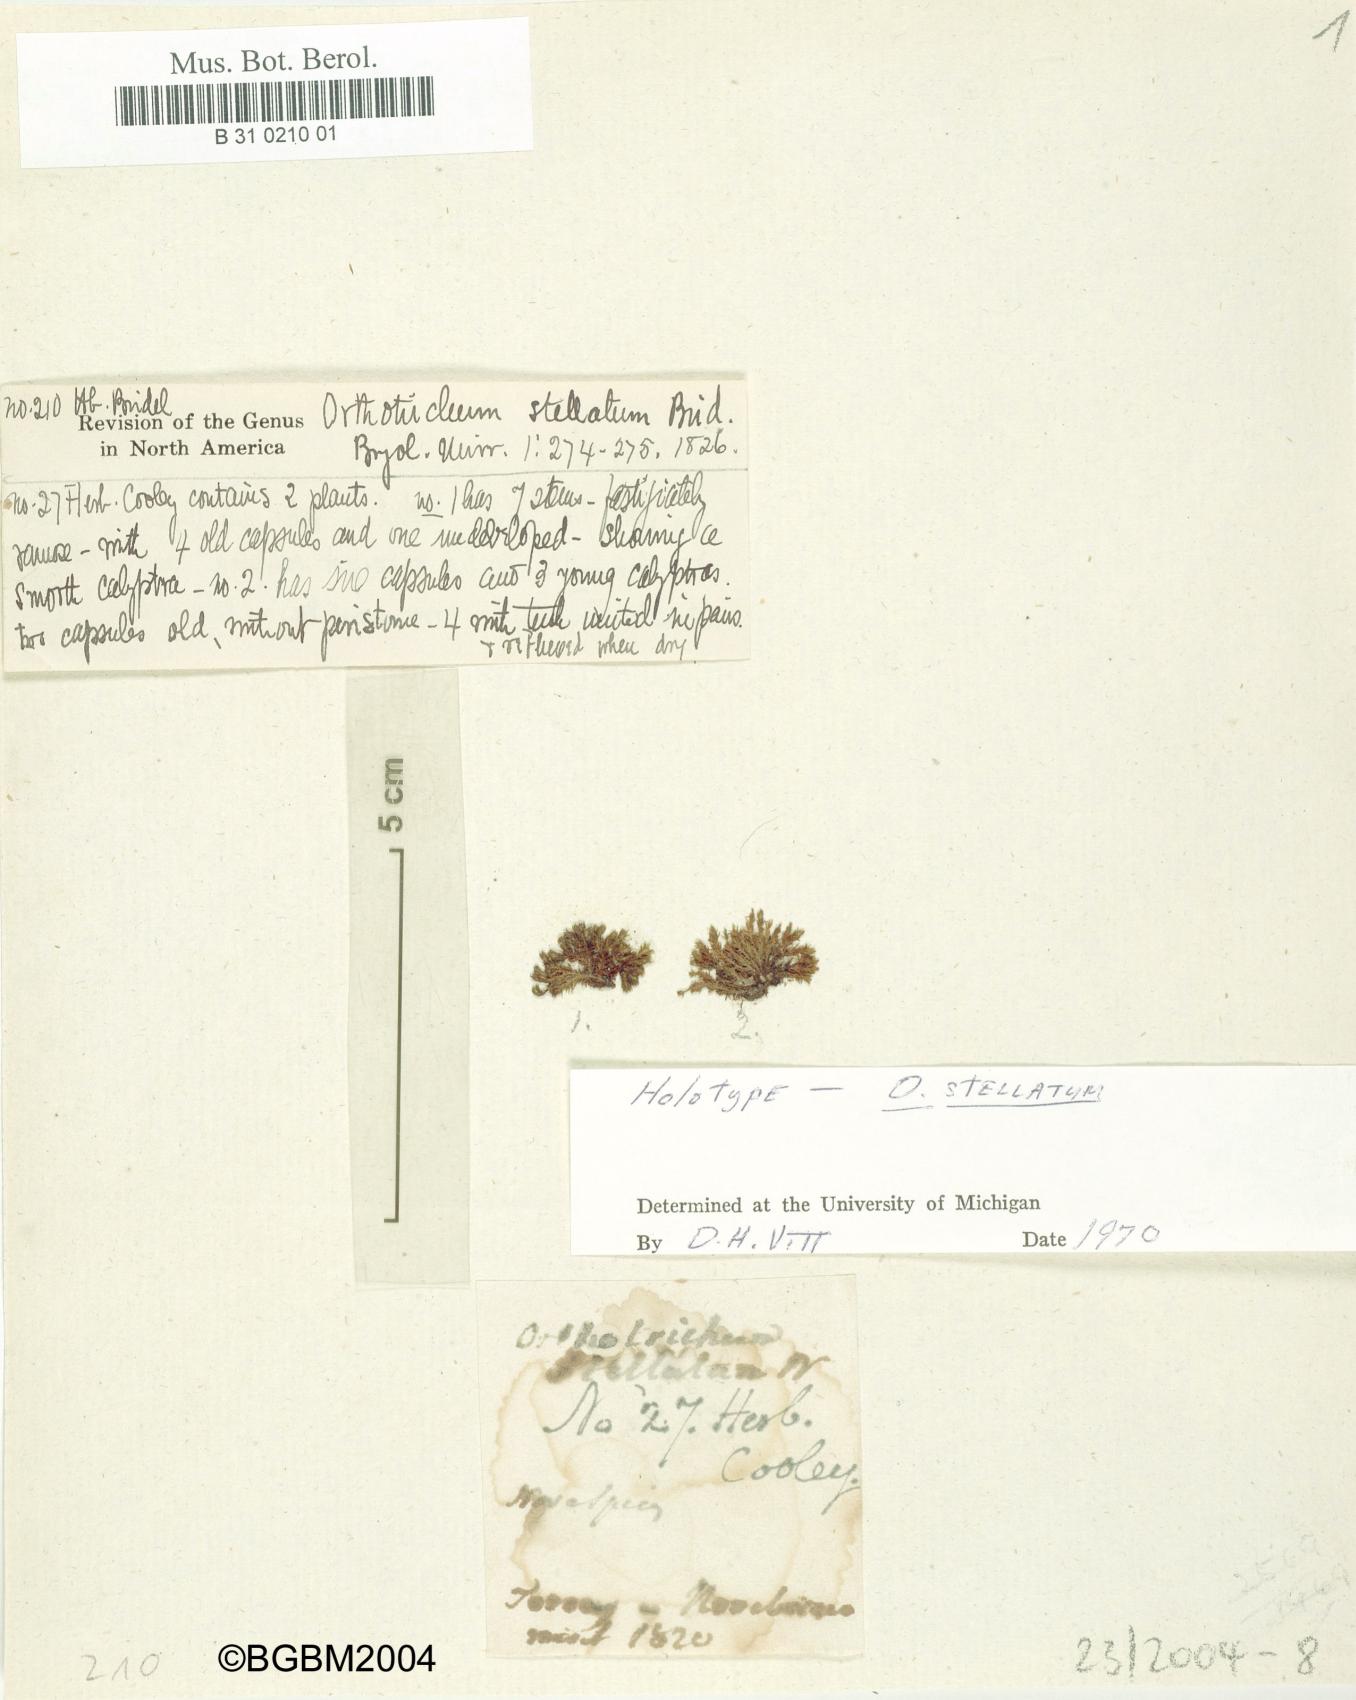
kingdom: Plantae
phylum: Bryophyta
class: Bryopsida
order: Orthotrichales
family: Orthotrichaceae
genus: Orthotrichum
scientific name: Orthotrichum stellatum
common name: Starlike bristle moss
